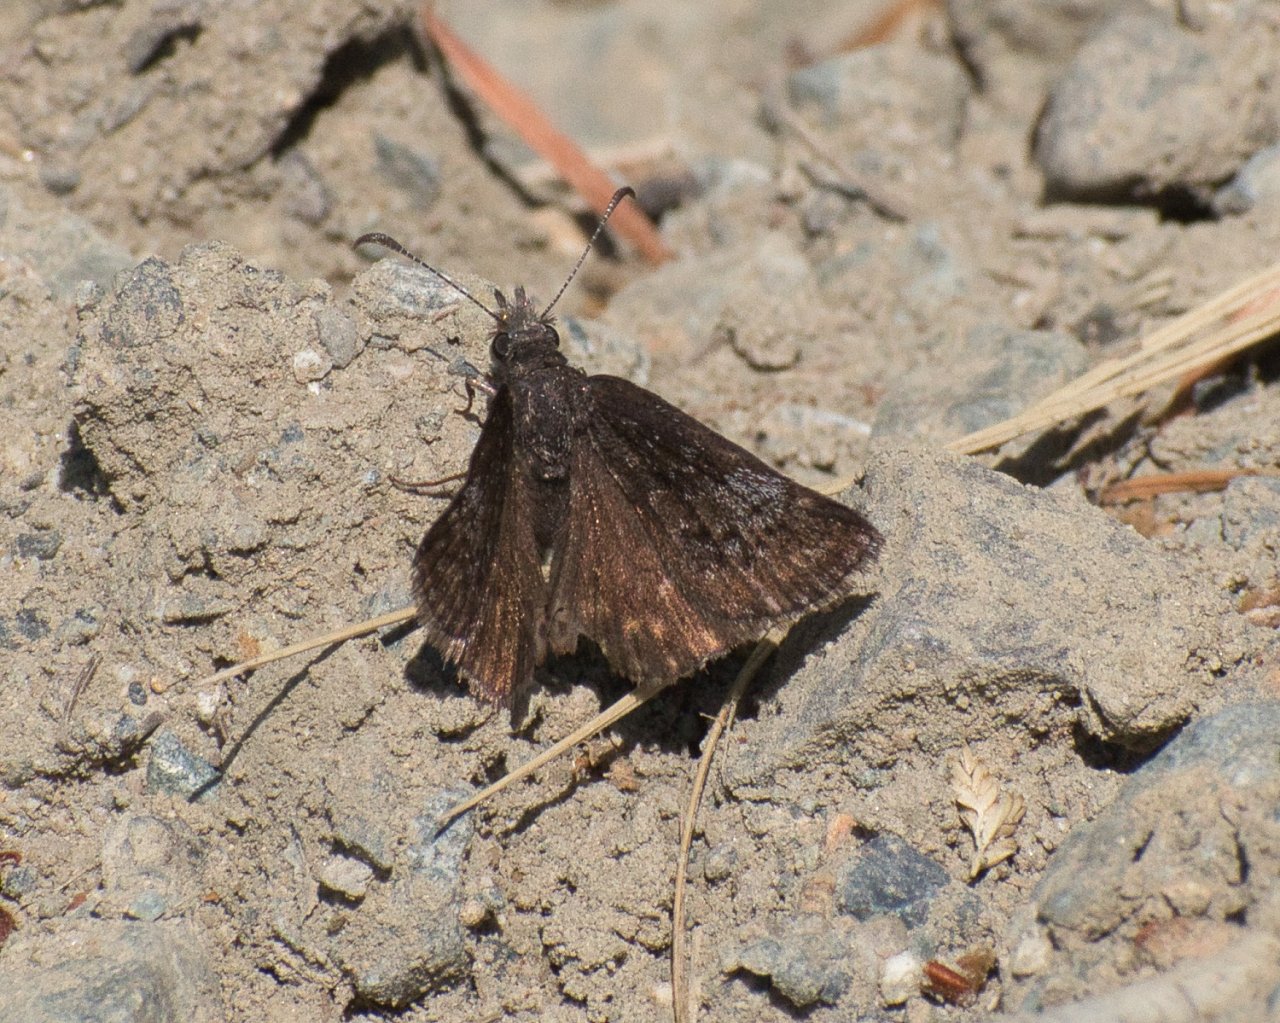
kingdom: Animalia
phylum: Arthropoda
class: Insecta
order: Lepidoptera
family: Hesperiidae
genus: Erynnis
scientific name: Erynnis icelus
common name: Dreamy Duskywing
